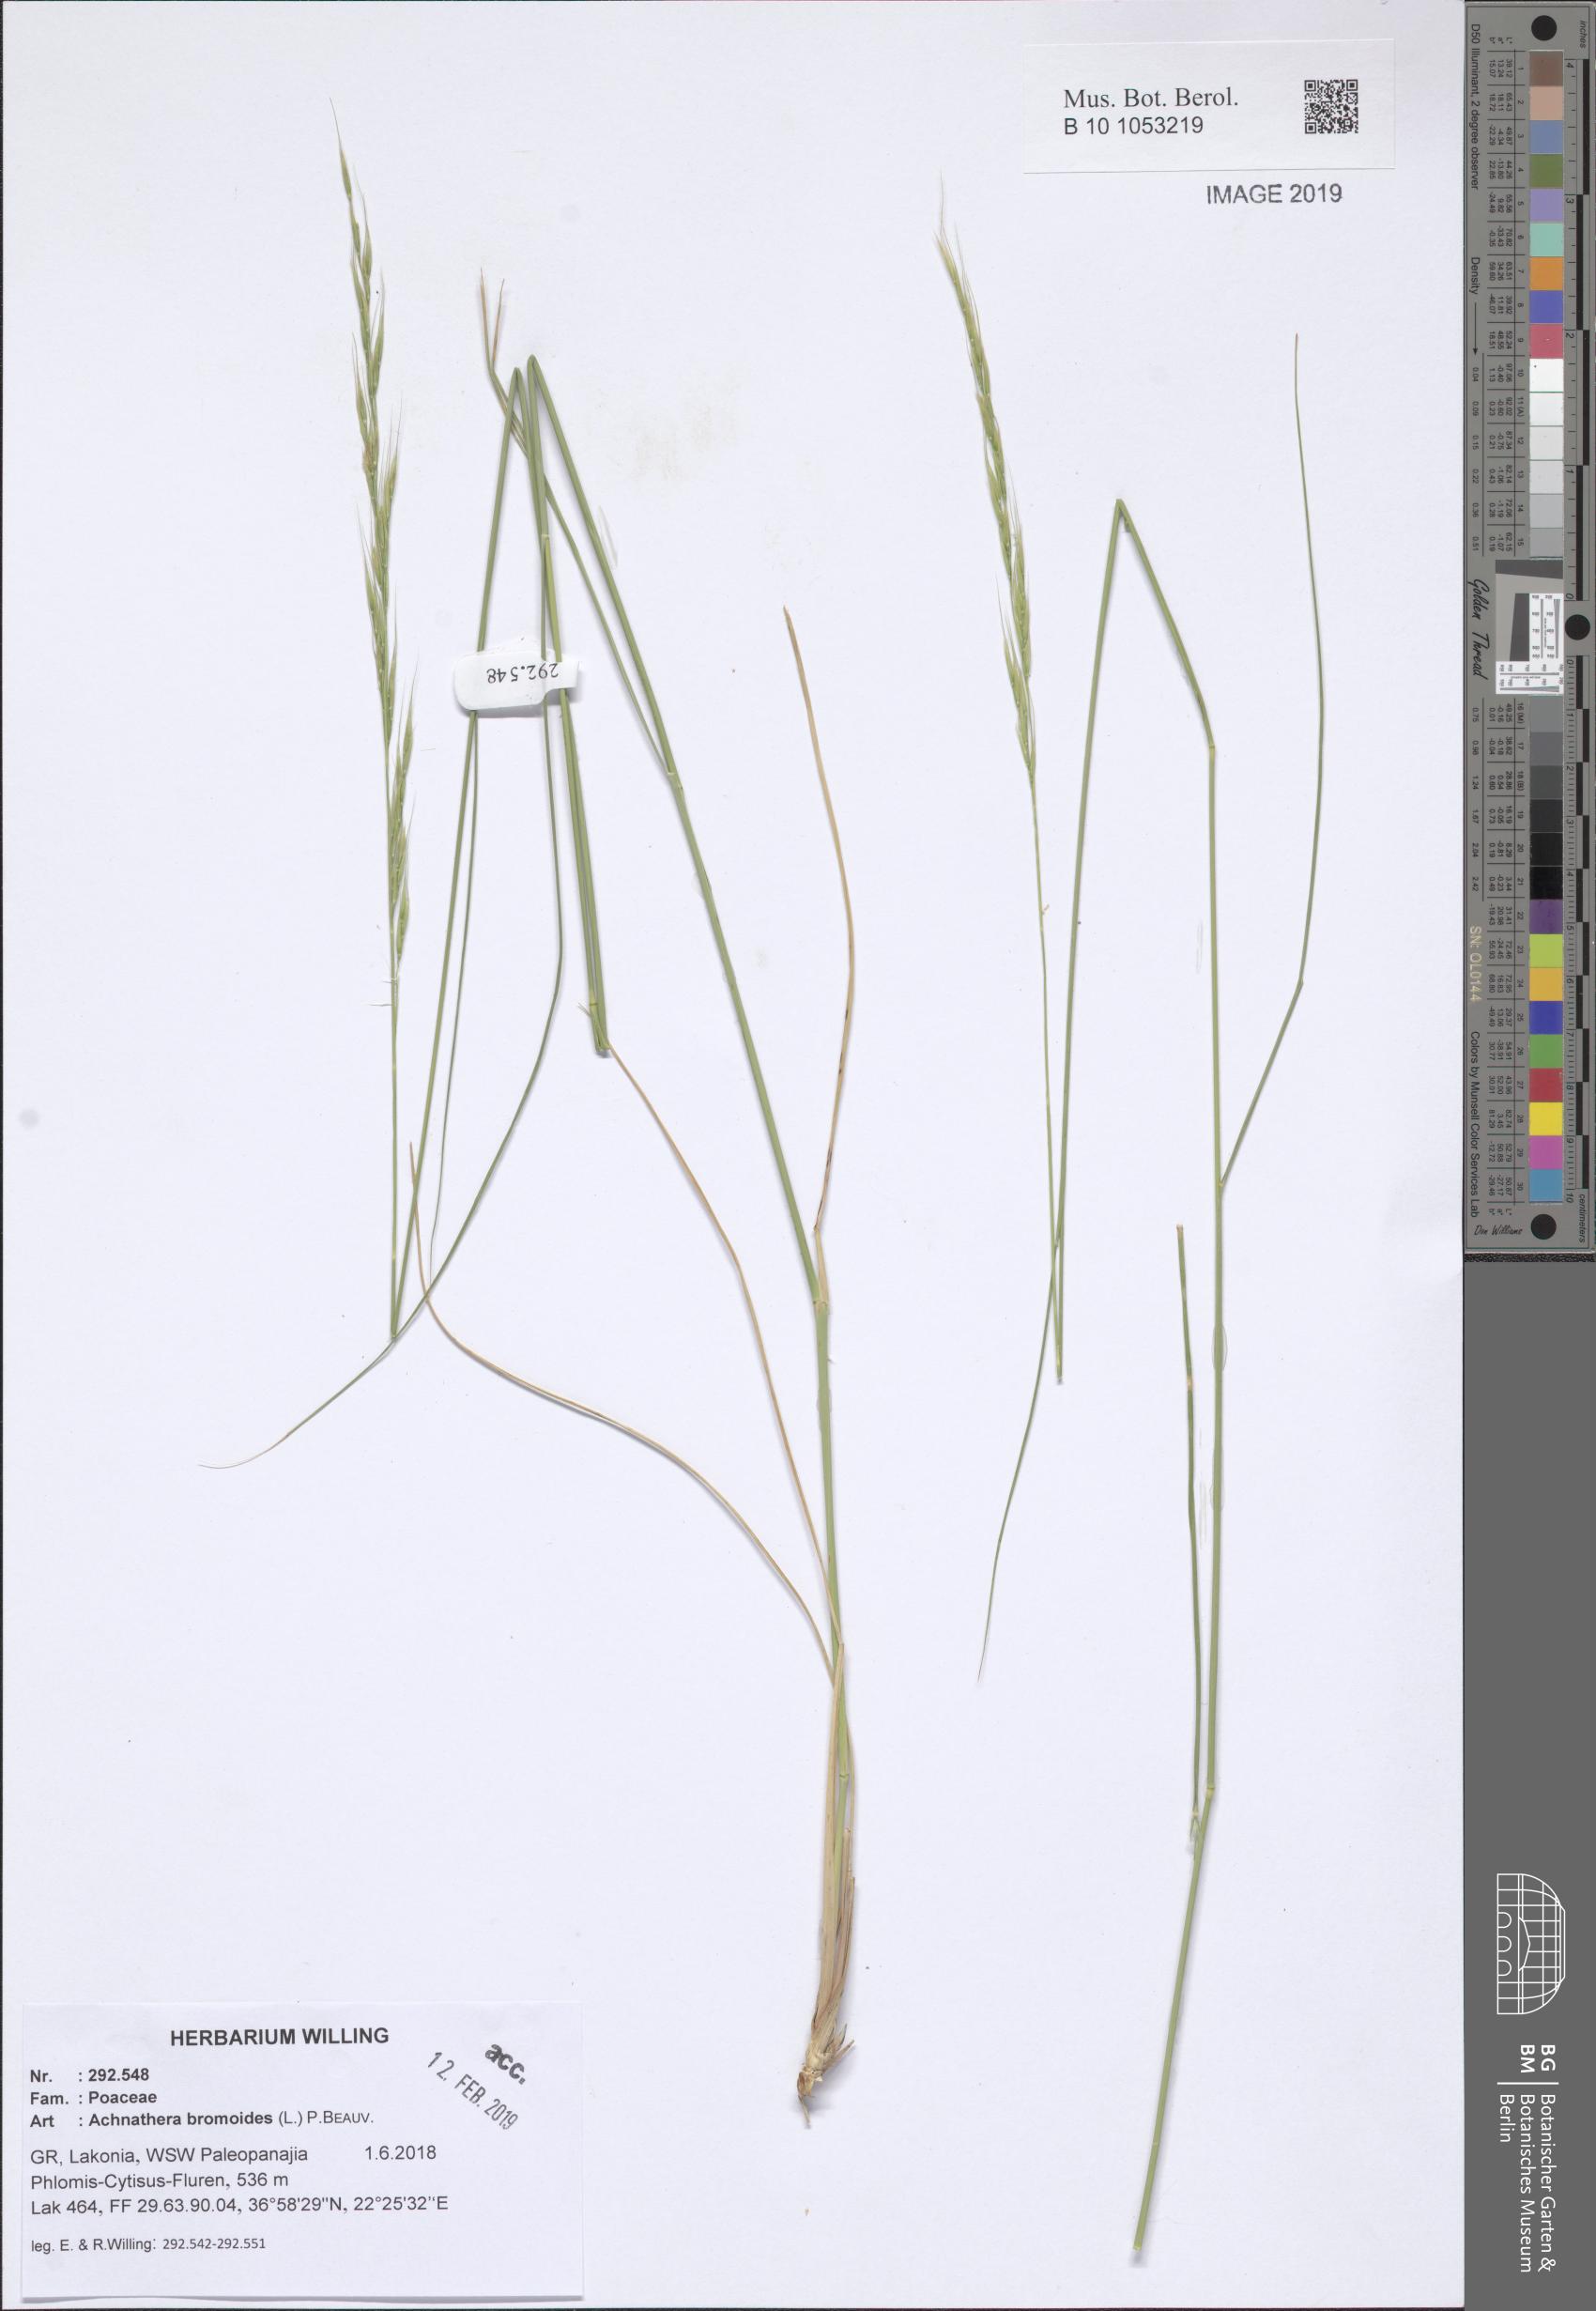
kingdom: Plantae
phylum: Tracheophyta
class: Liliopsida
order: Poales
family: Poaceae
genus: Achnatherum
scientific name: Achnatherum bromoides
